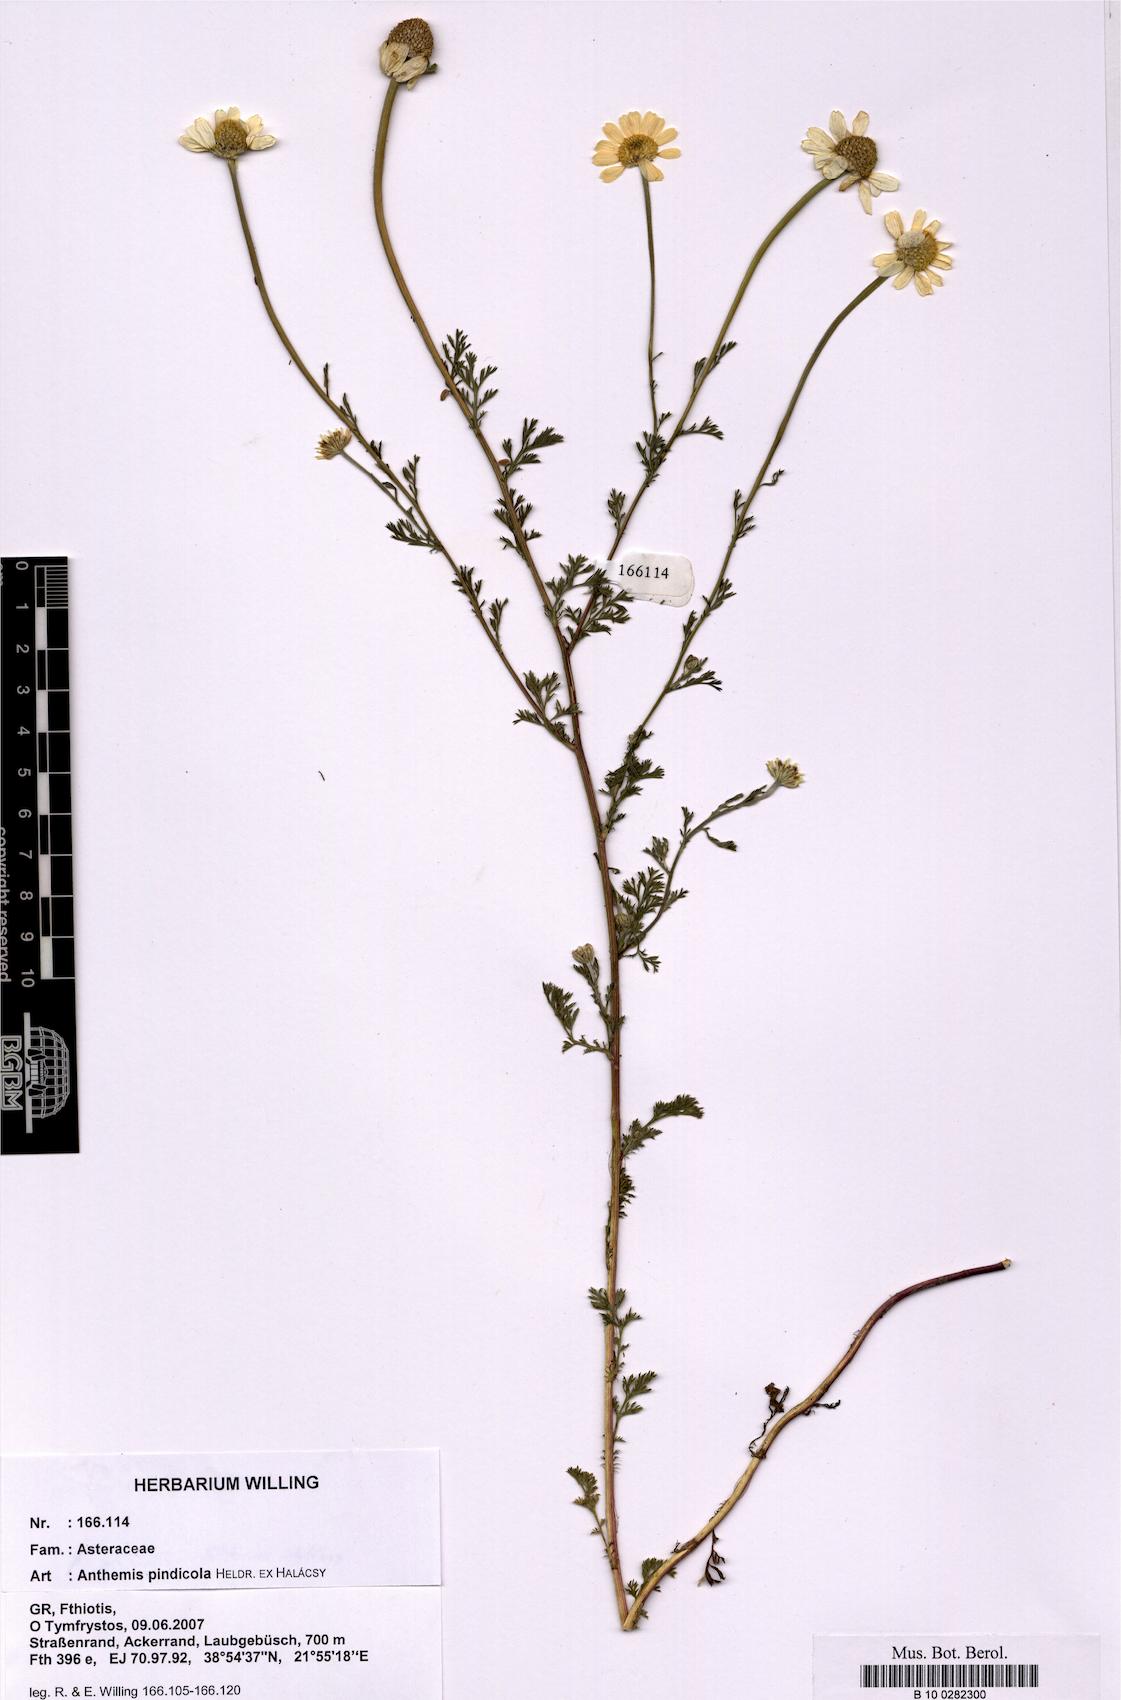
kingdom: Plantae
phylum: Tracheophyta
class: Magnoliopsida
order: Asterales
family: Asteraceae
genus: Anthemis
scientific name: Anthemis pindicola
